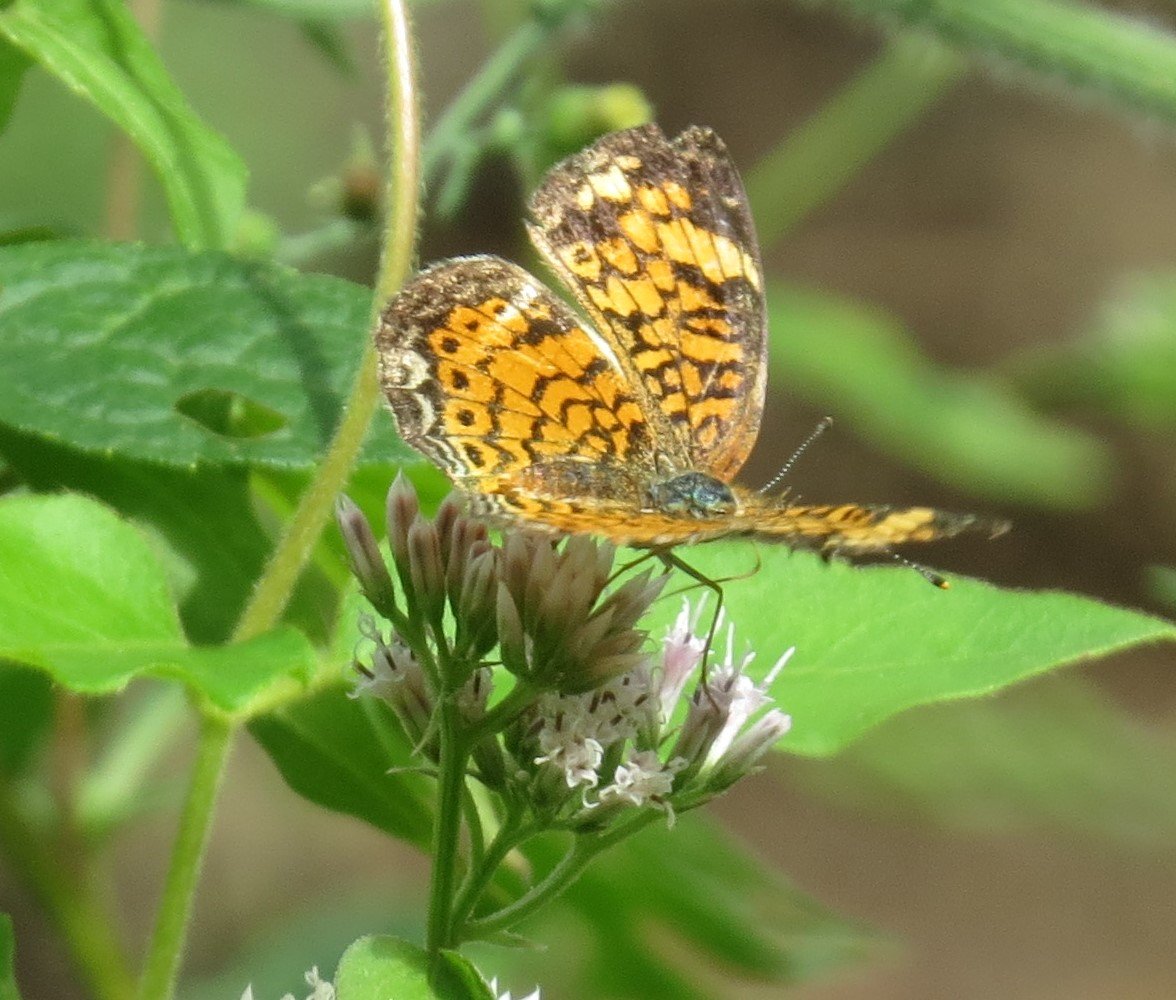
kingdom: Animalia
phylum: Arthropoda
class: Insecta
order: Lepidoptera
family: Nymphalidae
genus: Phyciodes
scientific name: Phyciodes tharos
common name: Pearl Crescent
